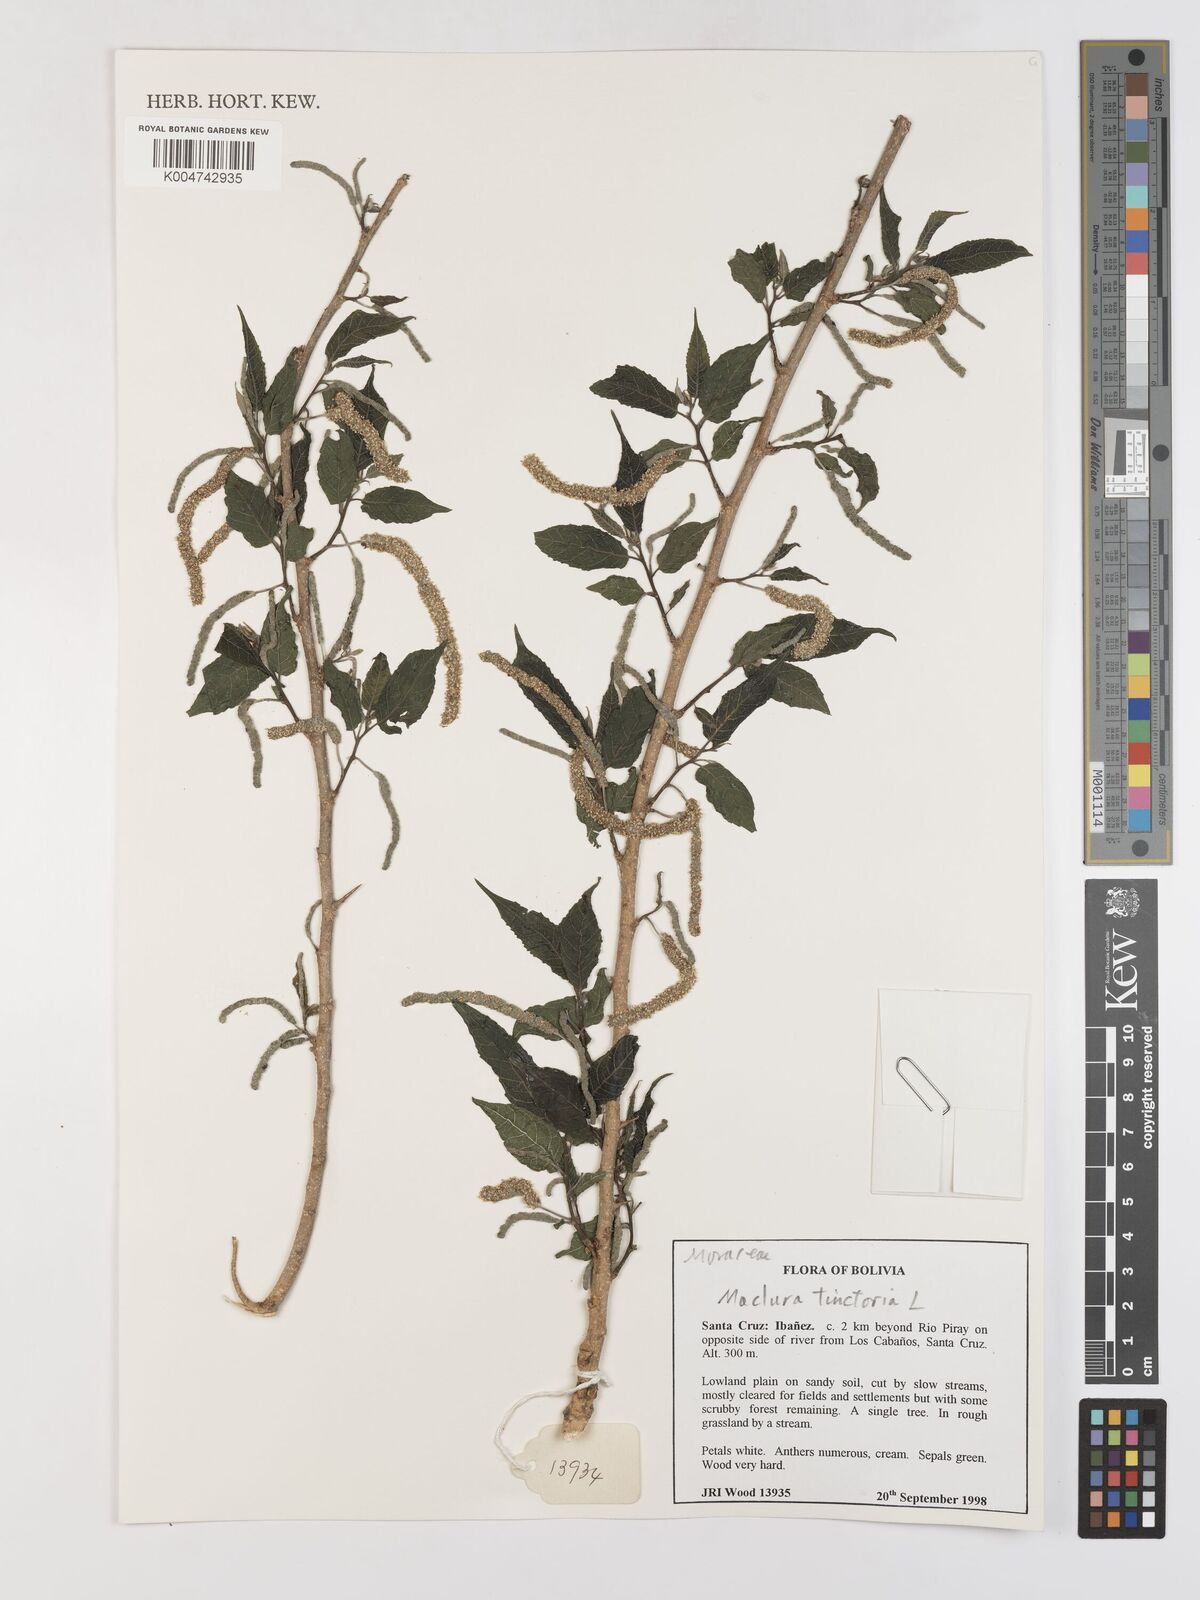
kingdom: Plantae
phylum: Tracheophyta
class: Magnoliopsida
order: Rosales
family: Moraceae
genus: Maclura
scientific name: Maclura tinctoria
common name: Old fustic
